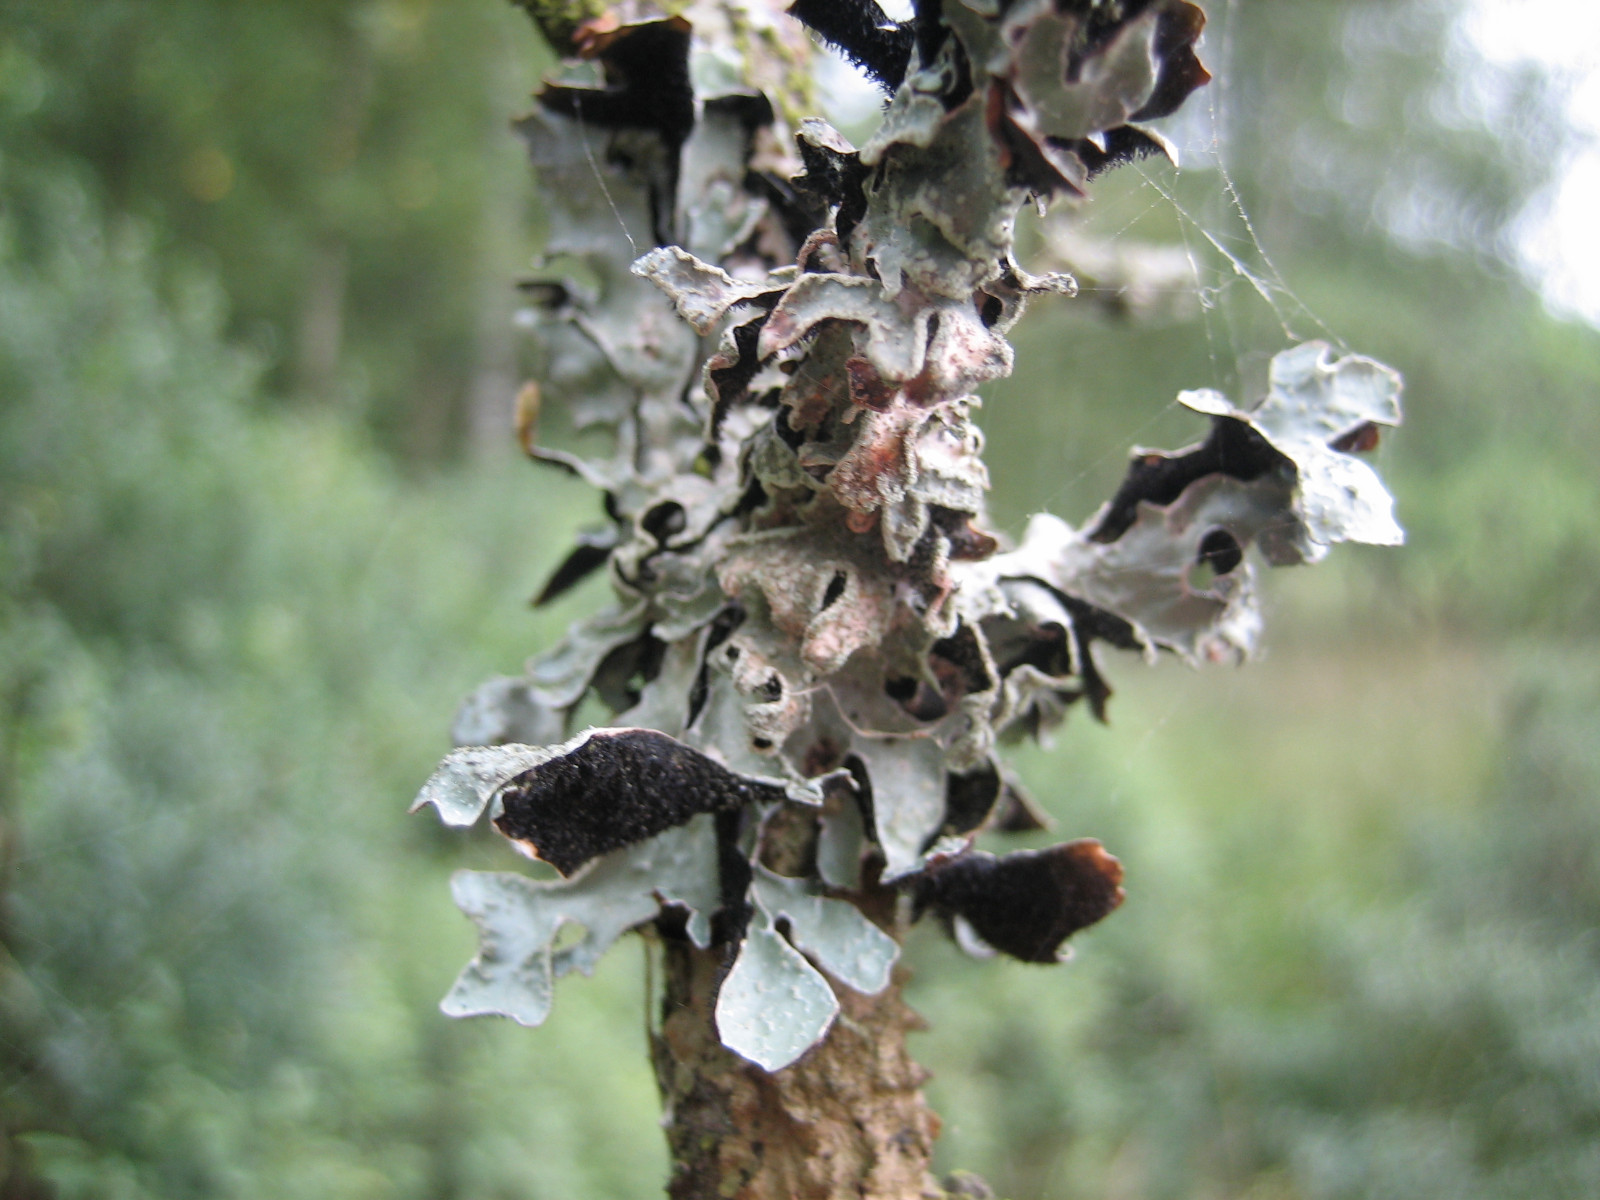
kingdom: Fungi
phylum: Ascomycota
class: Lecanoromycetes
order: Lecanorales
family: Parmeliaceae
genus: Parmelia
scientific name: Parmelia sulcata
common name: rynket skållav
